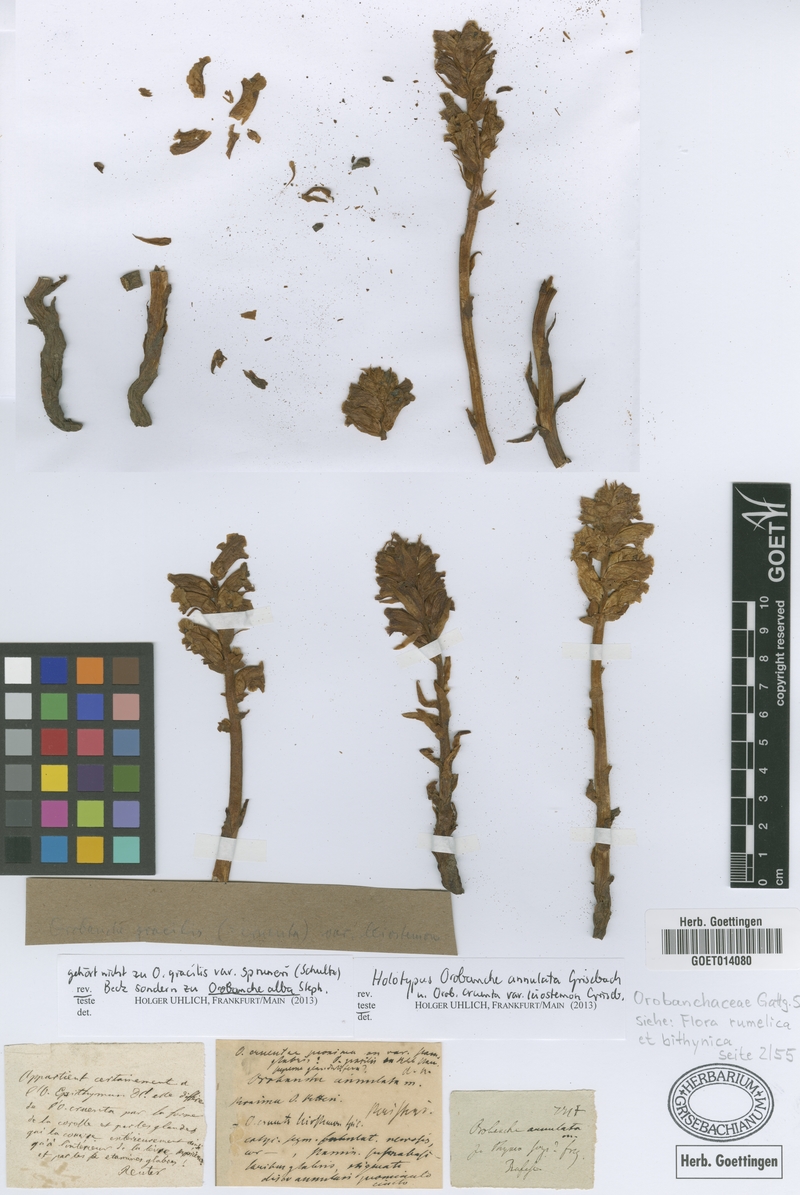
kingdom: Plantae
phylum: Tracheophyta
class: Magnoliopsida
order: Lamiales
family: Orobanchaceae
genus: Orobanche
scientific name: Orobanche alba
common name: Thyme broomrape
